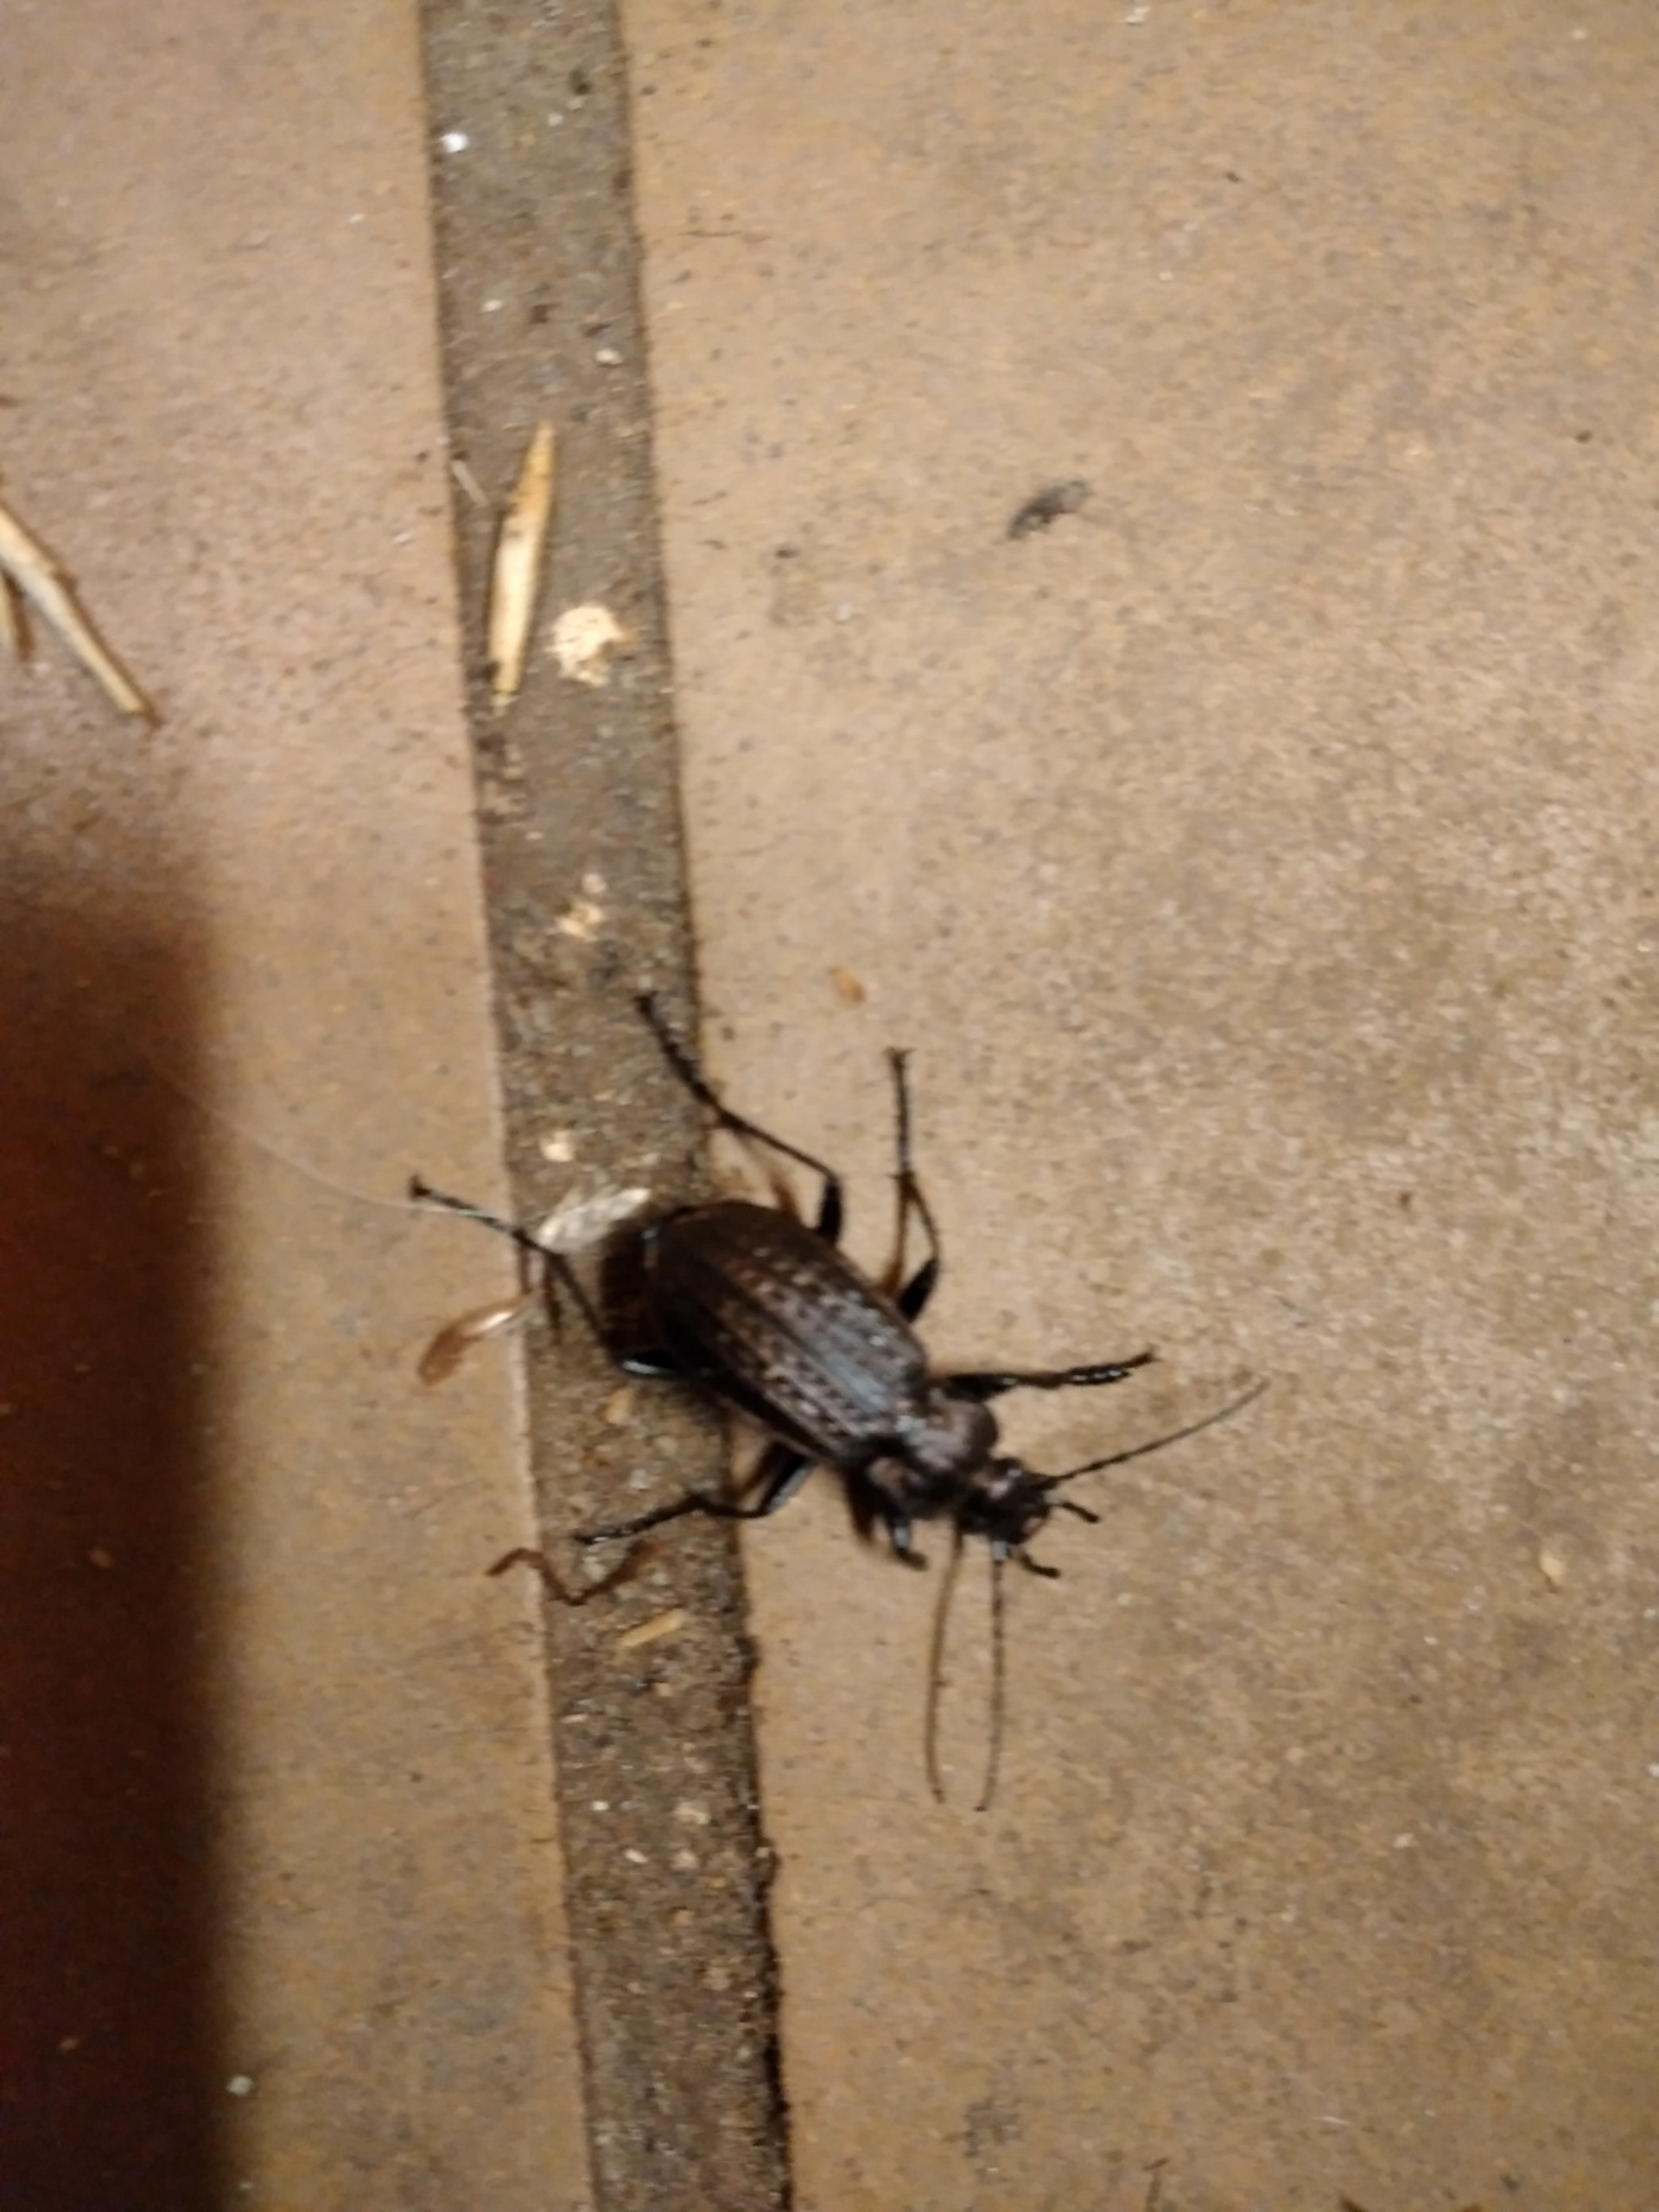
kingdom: Animalia
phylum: Arthropoda
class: Insecta
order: Coleoptera
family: Carabidae
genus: Carabus
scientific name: Carabus granulatus
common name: Kornet løber
